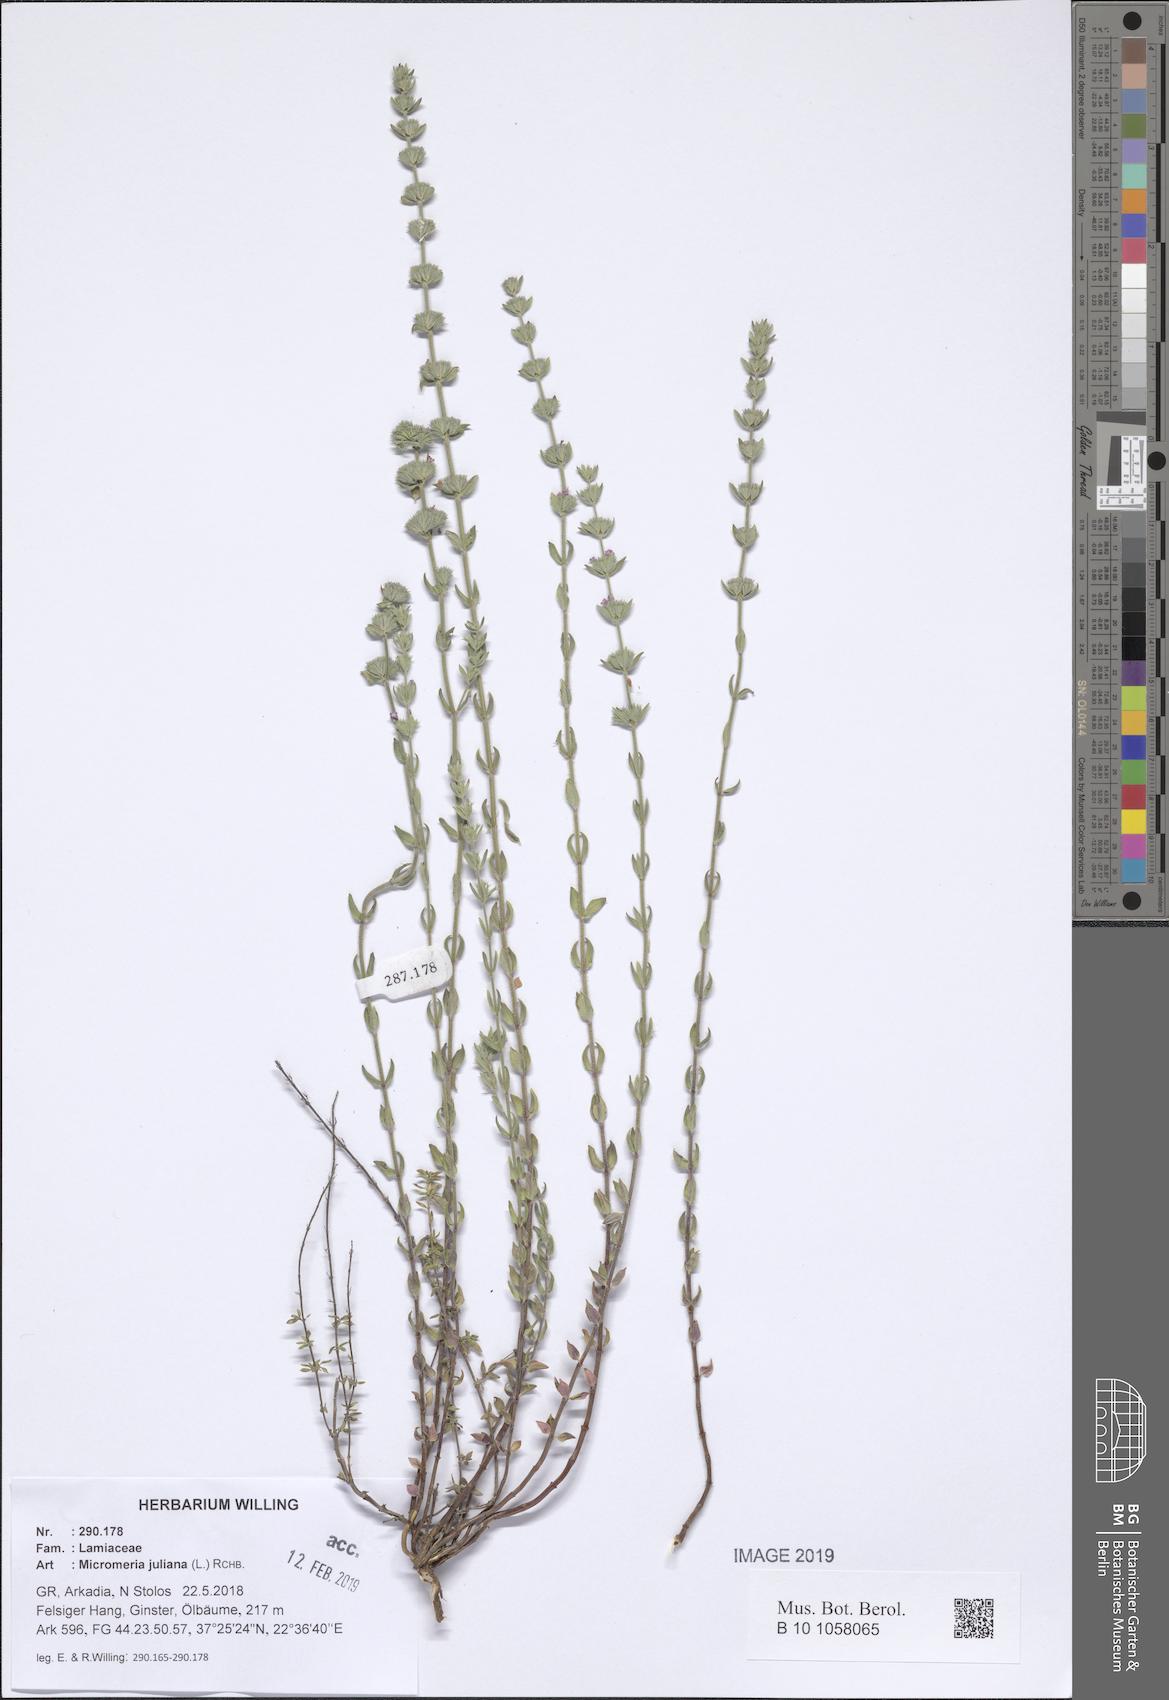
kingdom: Plantae
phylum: Tracheophyta
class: Magnoliopsida
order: Lamiales
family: Lamiaceae
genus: Micromeria
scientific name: Micromeria juliana
